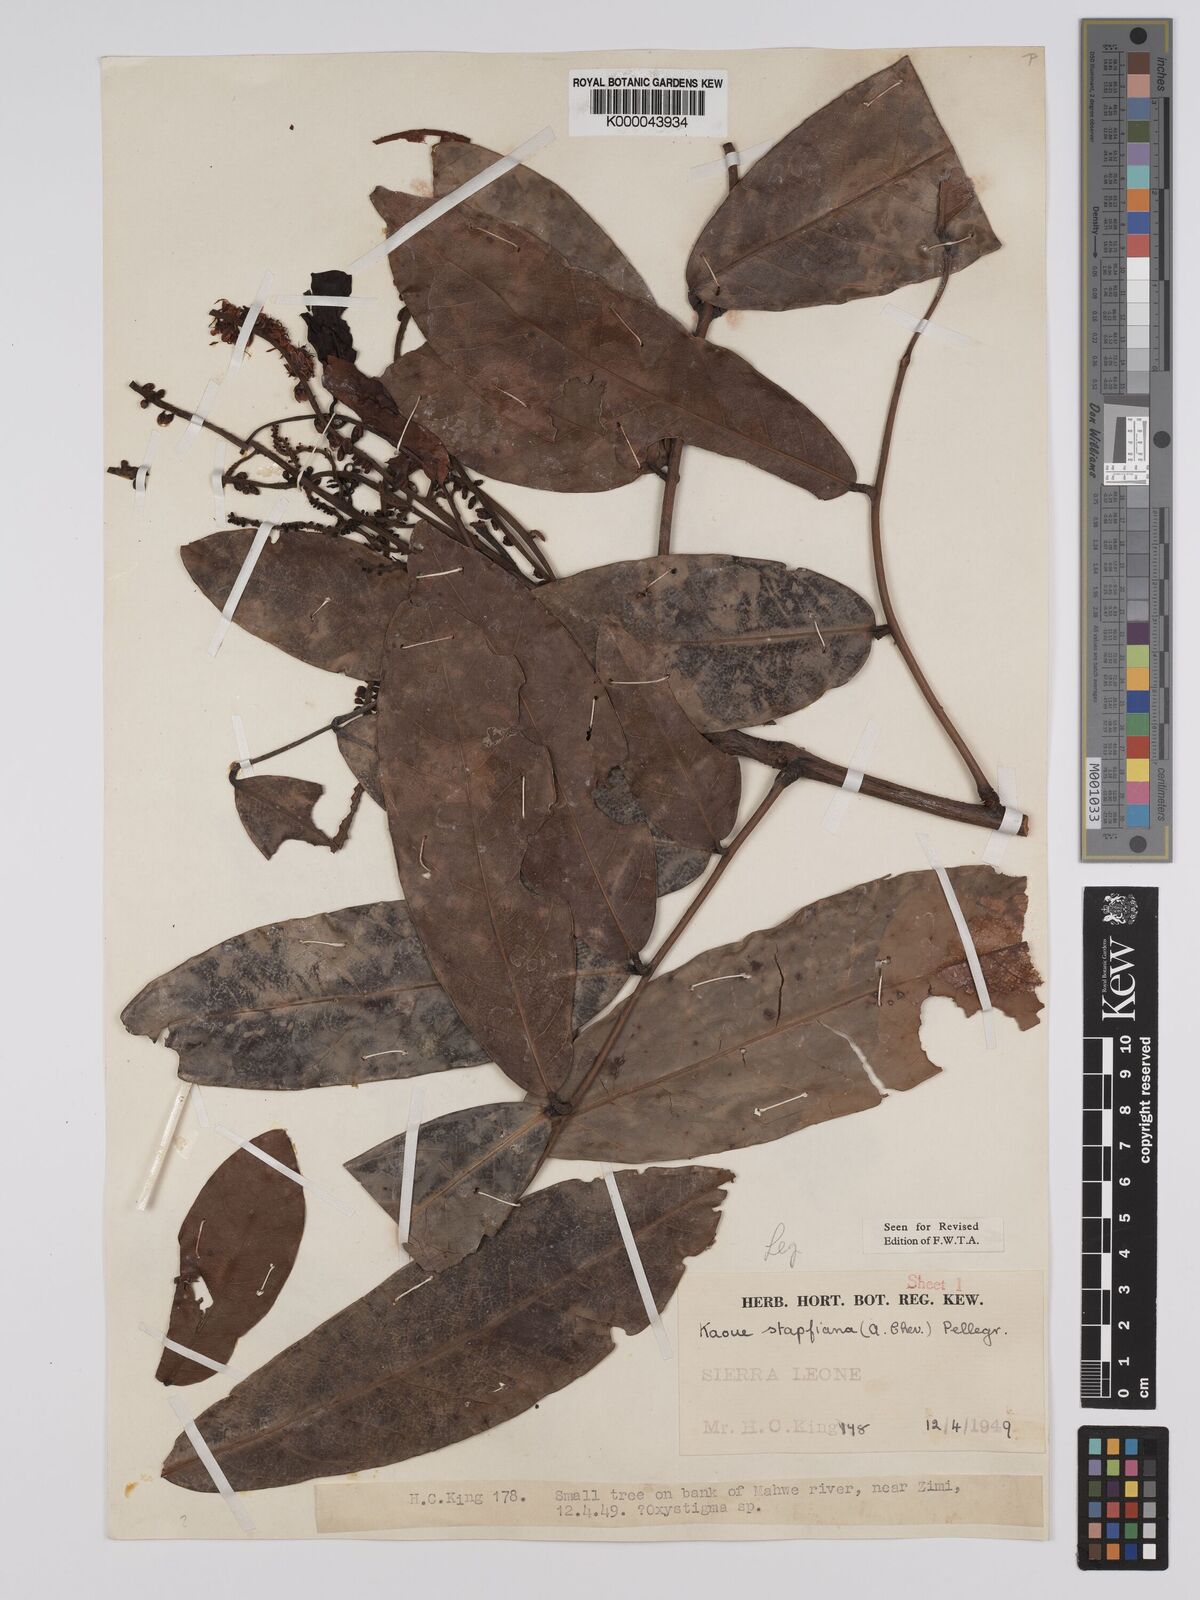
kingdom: Plantae
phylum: Tracheophyta
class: Magnoliopsida
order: Fabales
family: Fabaceae
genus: Stachyothyrsus
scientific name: Stachyothyrsus
